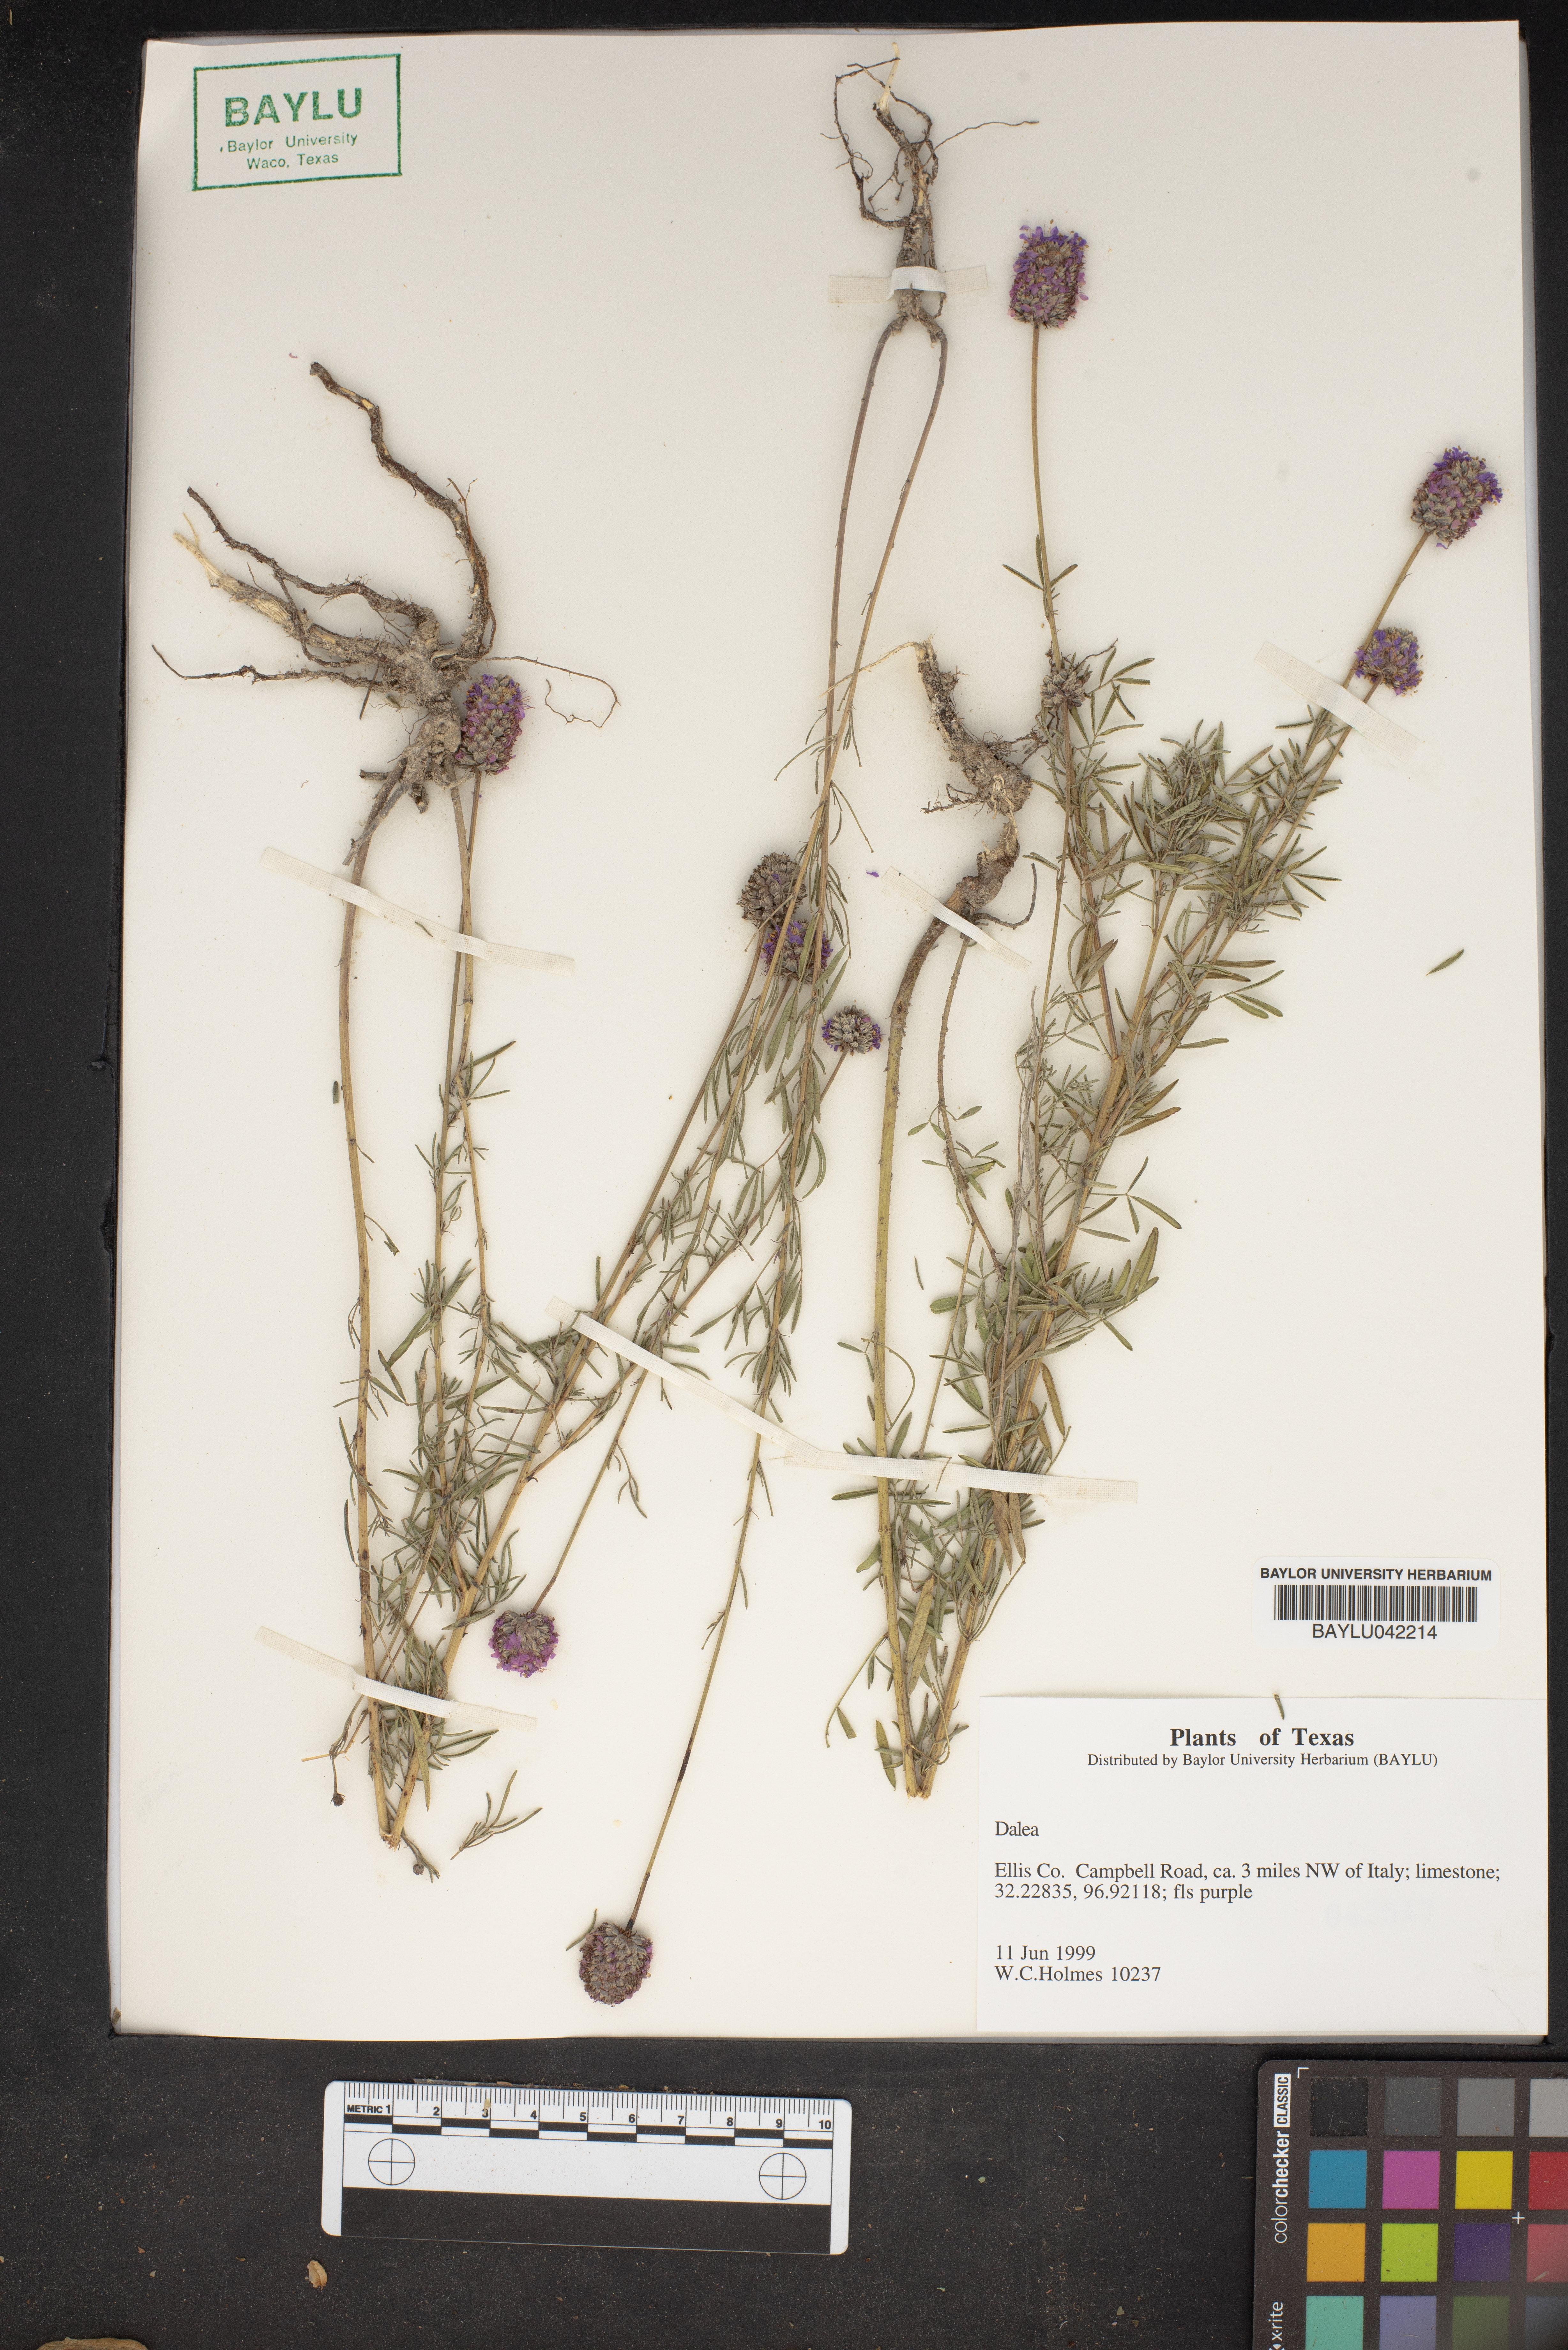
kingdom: Plantae
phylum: Tracheophyta
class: Magnoliopsida
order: Fabales
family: Fabaceae
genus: Dalea
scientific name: Dalea
